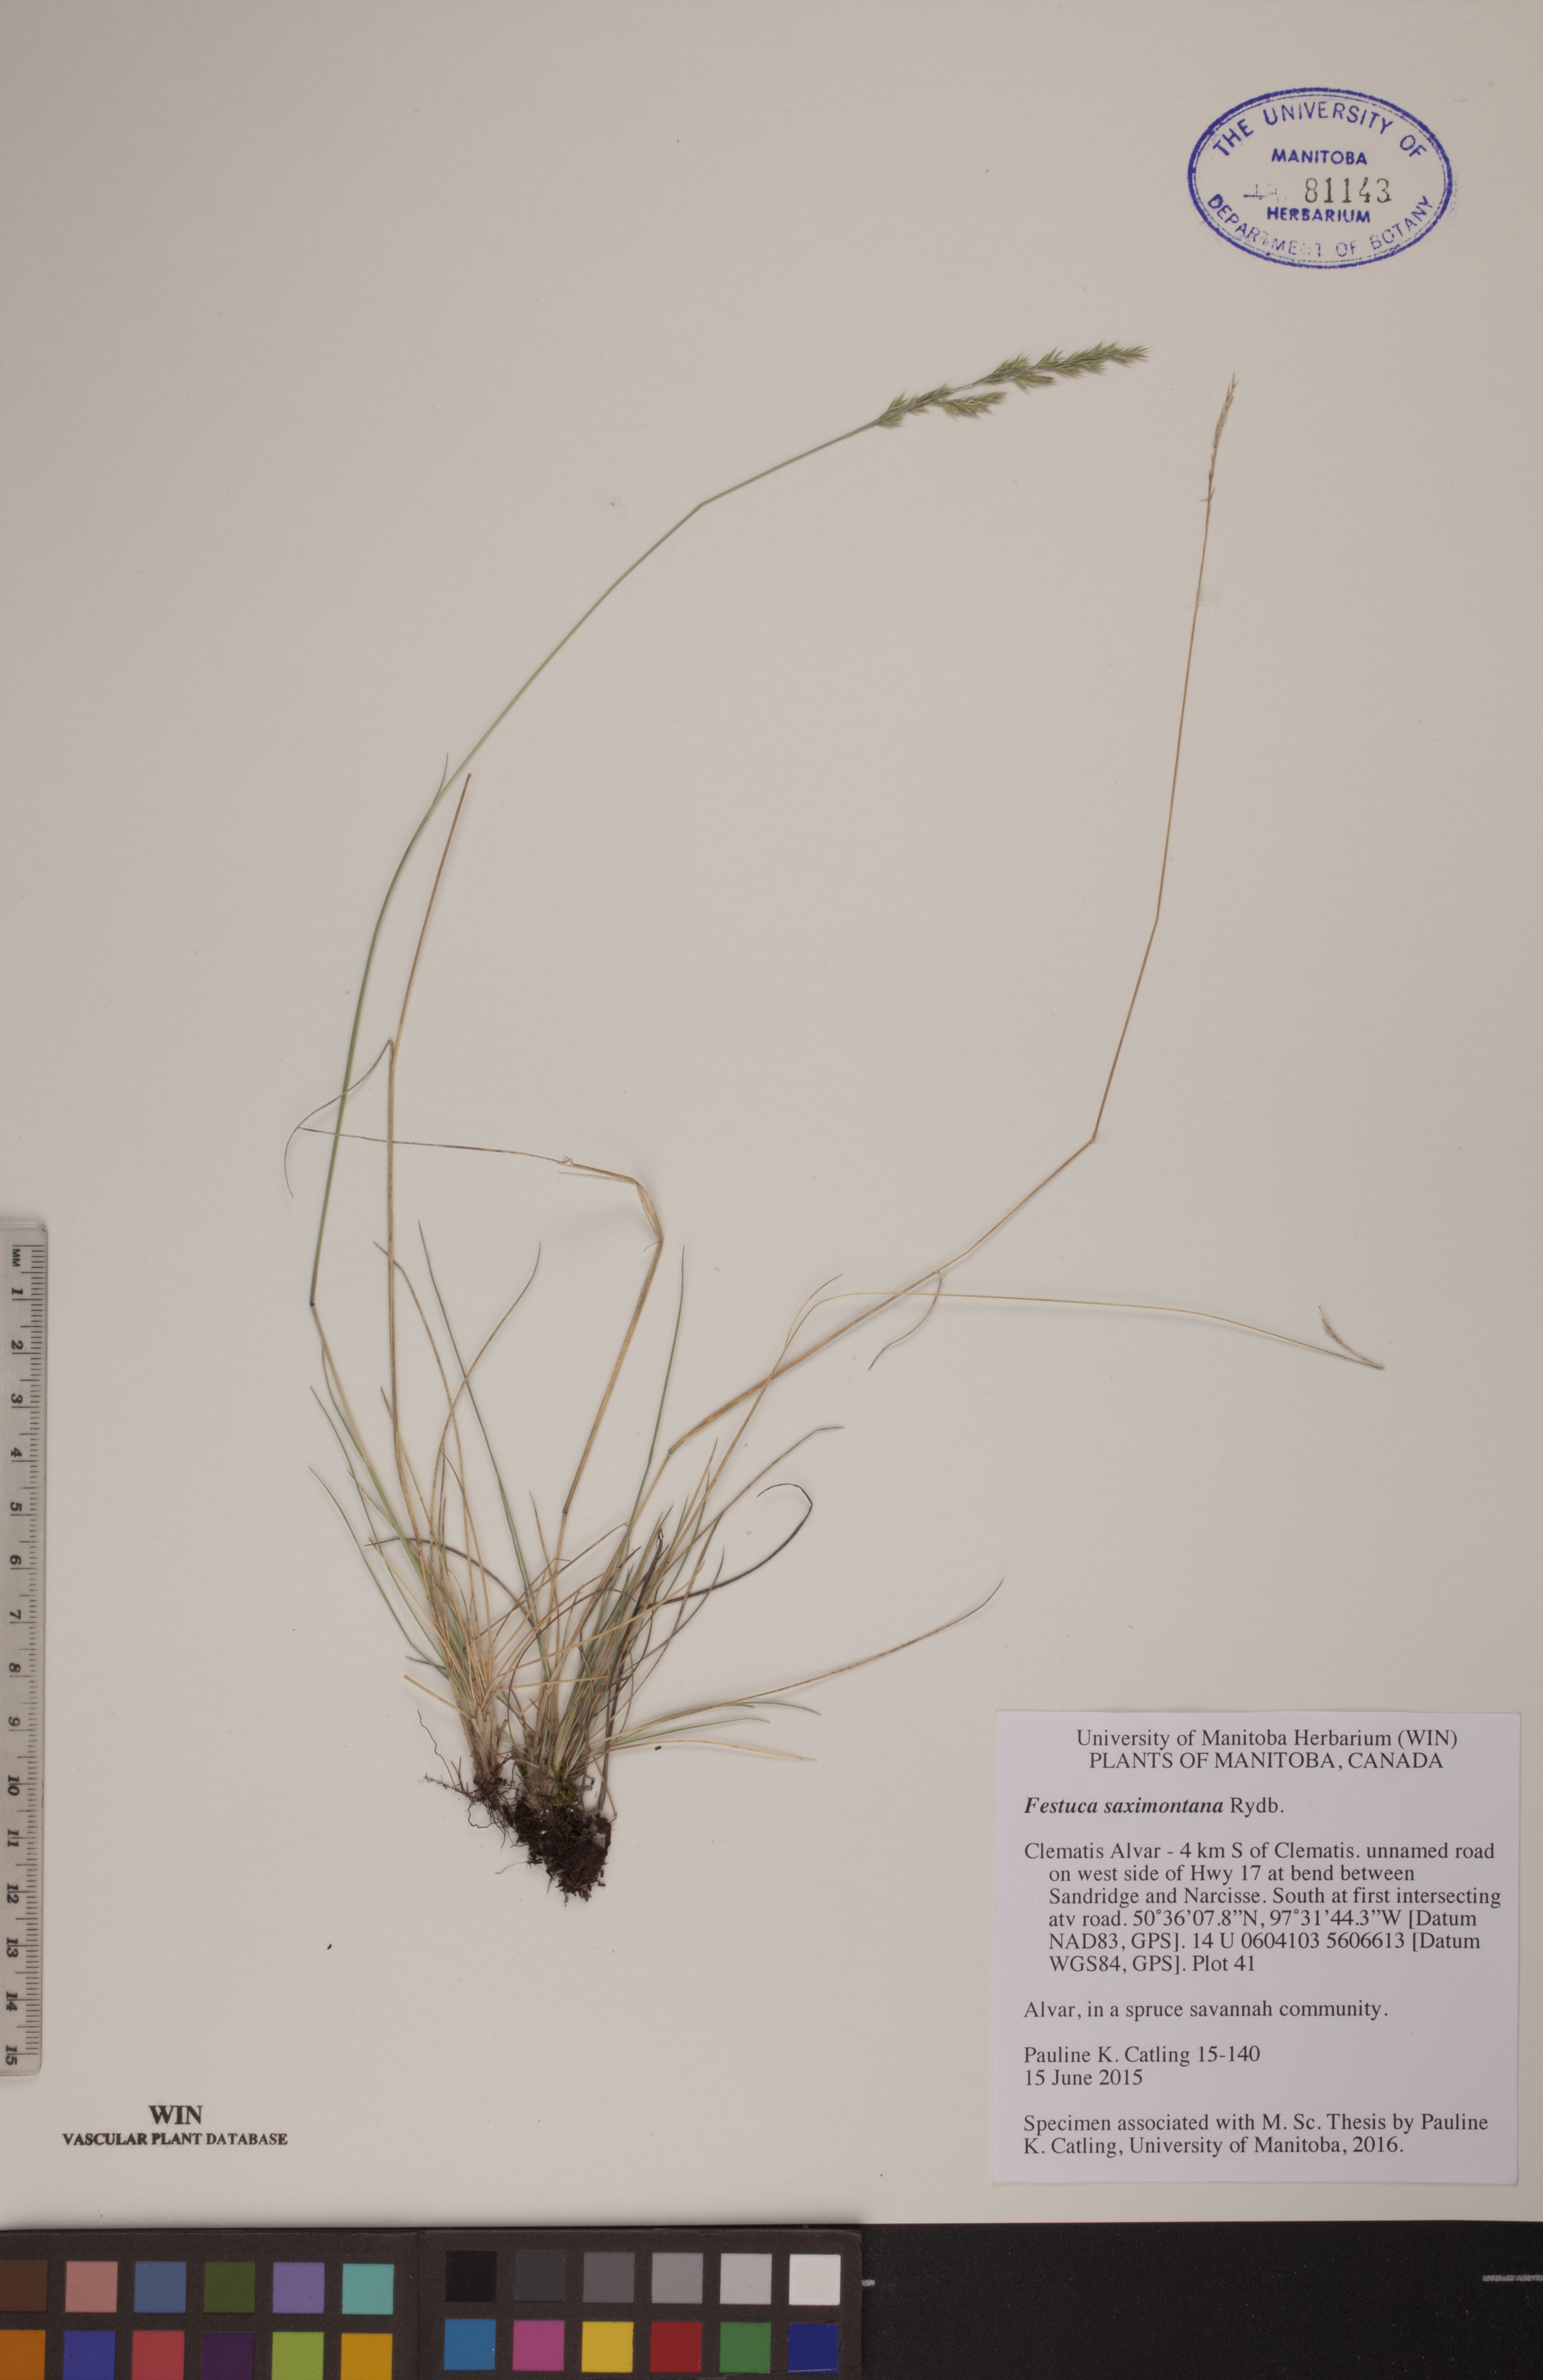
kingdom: Plantae
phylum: Tracheophyta
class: Liliopsida
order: Poales
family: Poaceae
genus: Festuca
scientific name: Festuca saximontana
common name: Mountain fescue
